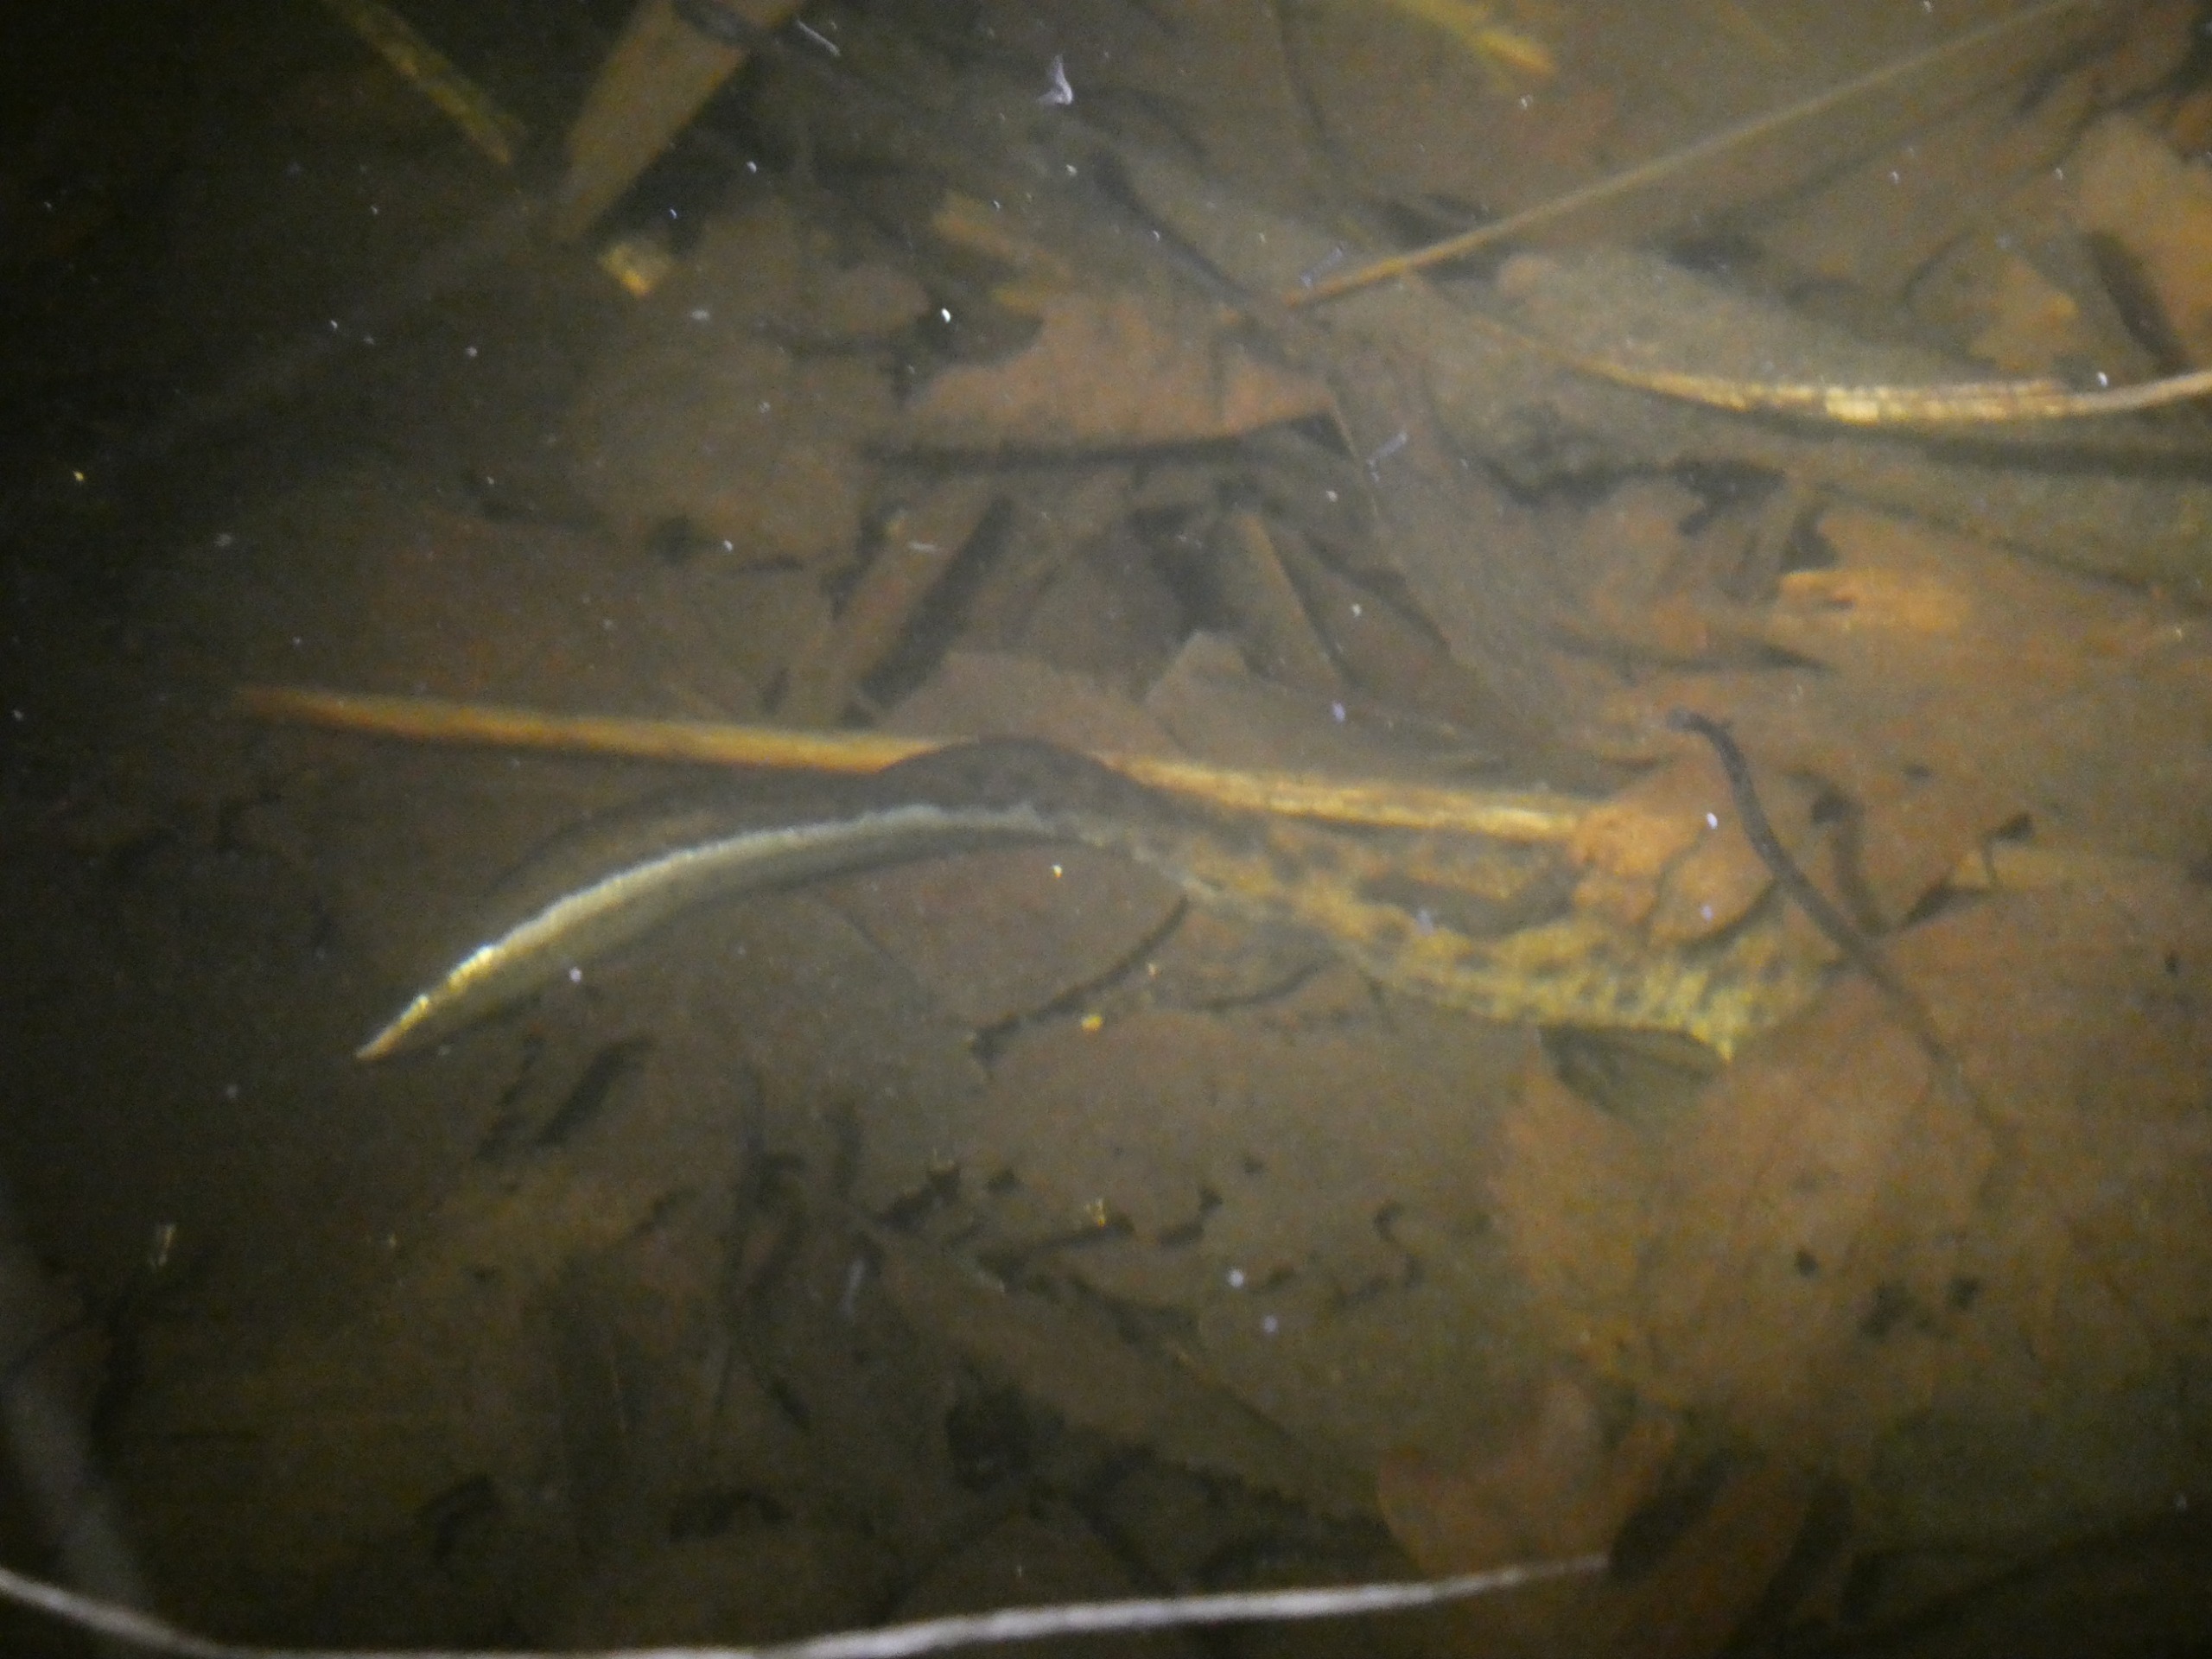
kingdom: Animalia
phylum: Chordata
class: Amphibia
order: Caudata
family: Salamandridae
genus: Triturus
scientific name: Triturus cristatus
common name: Stor vandsalamander
